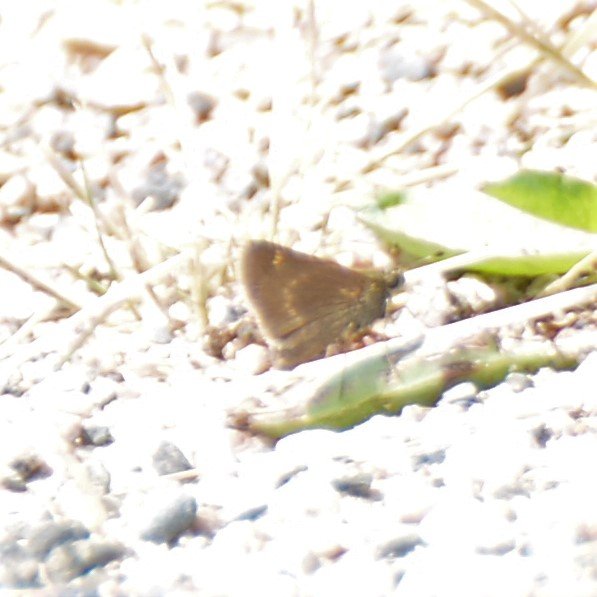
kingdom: Animalia
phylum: Arthropoda
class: Insecta
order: Lepidoptera
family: Hesperiidae
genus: Polites
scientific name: Polites themistocles
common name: Tawny-edged Skipper
